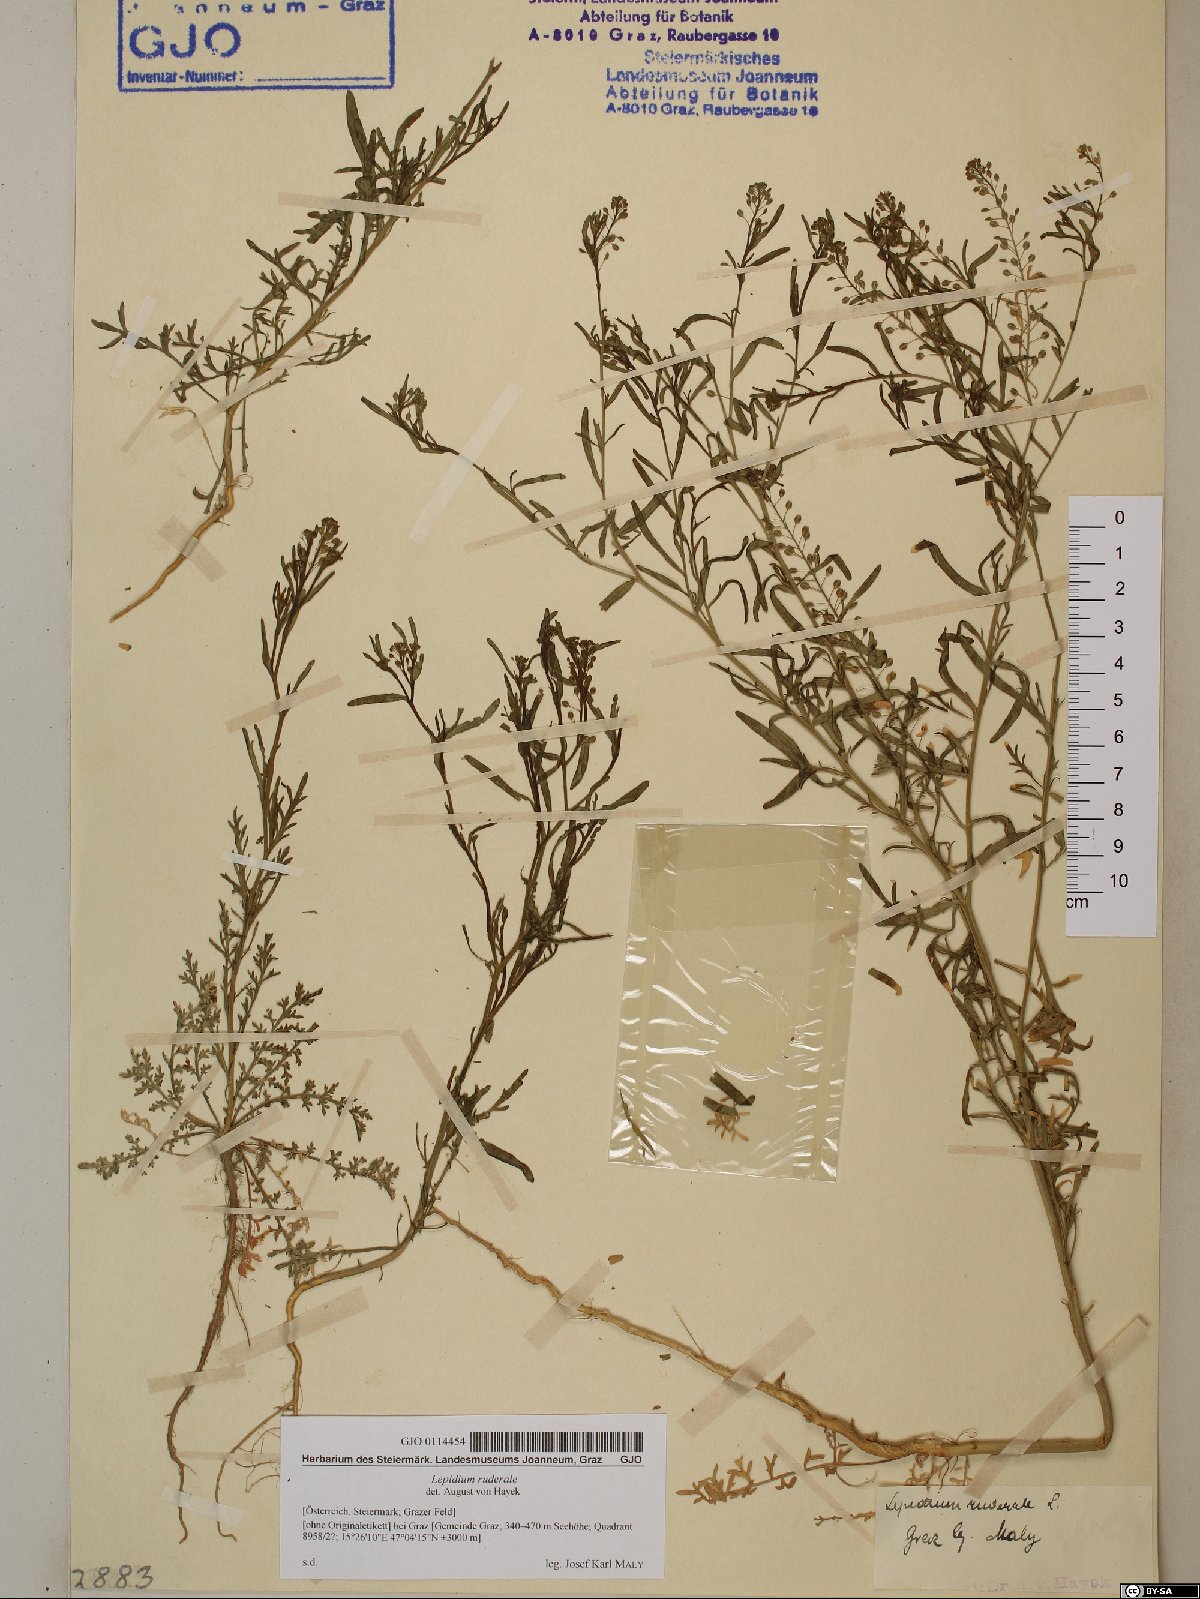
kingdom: Plantae
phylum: Tracheophyta
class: Magnoliopsida
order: Brassicales
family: Brassicaceae
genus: Lepidium
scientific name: Lepidium ruderale
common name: Narrow-leaved pepperwort
